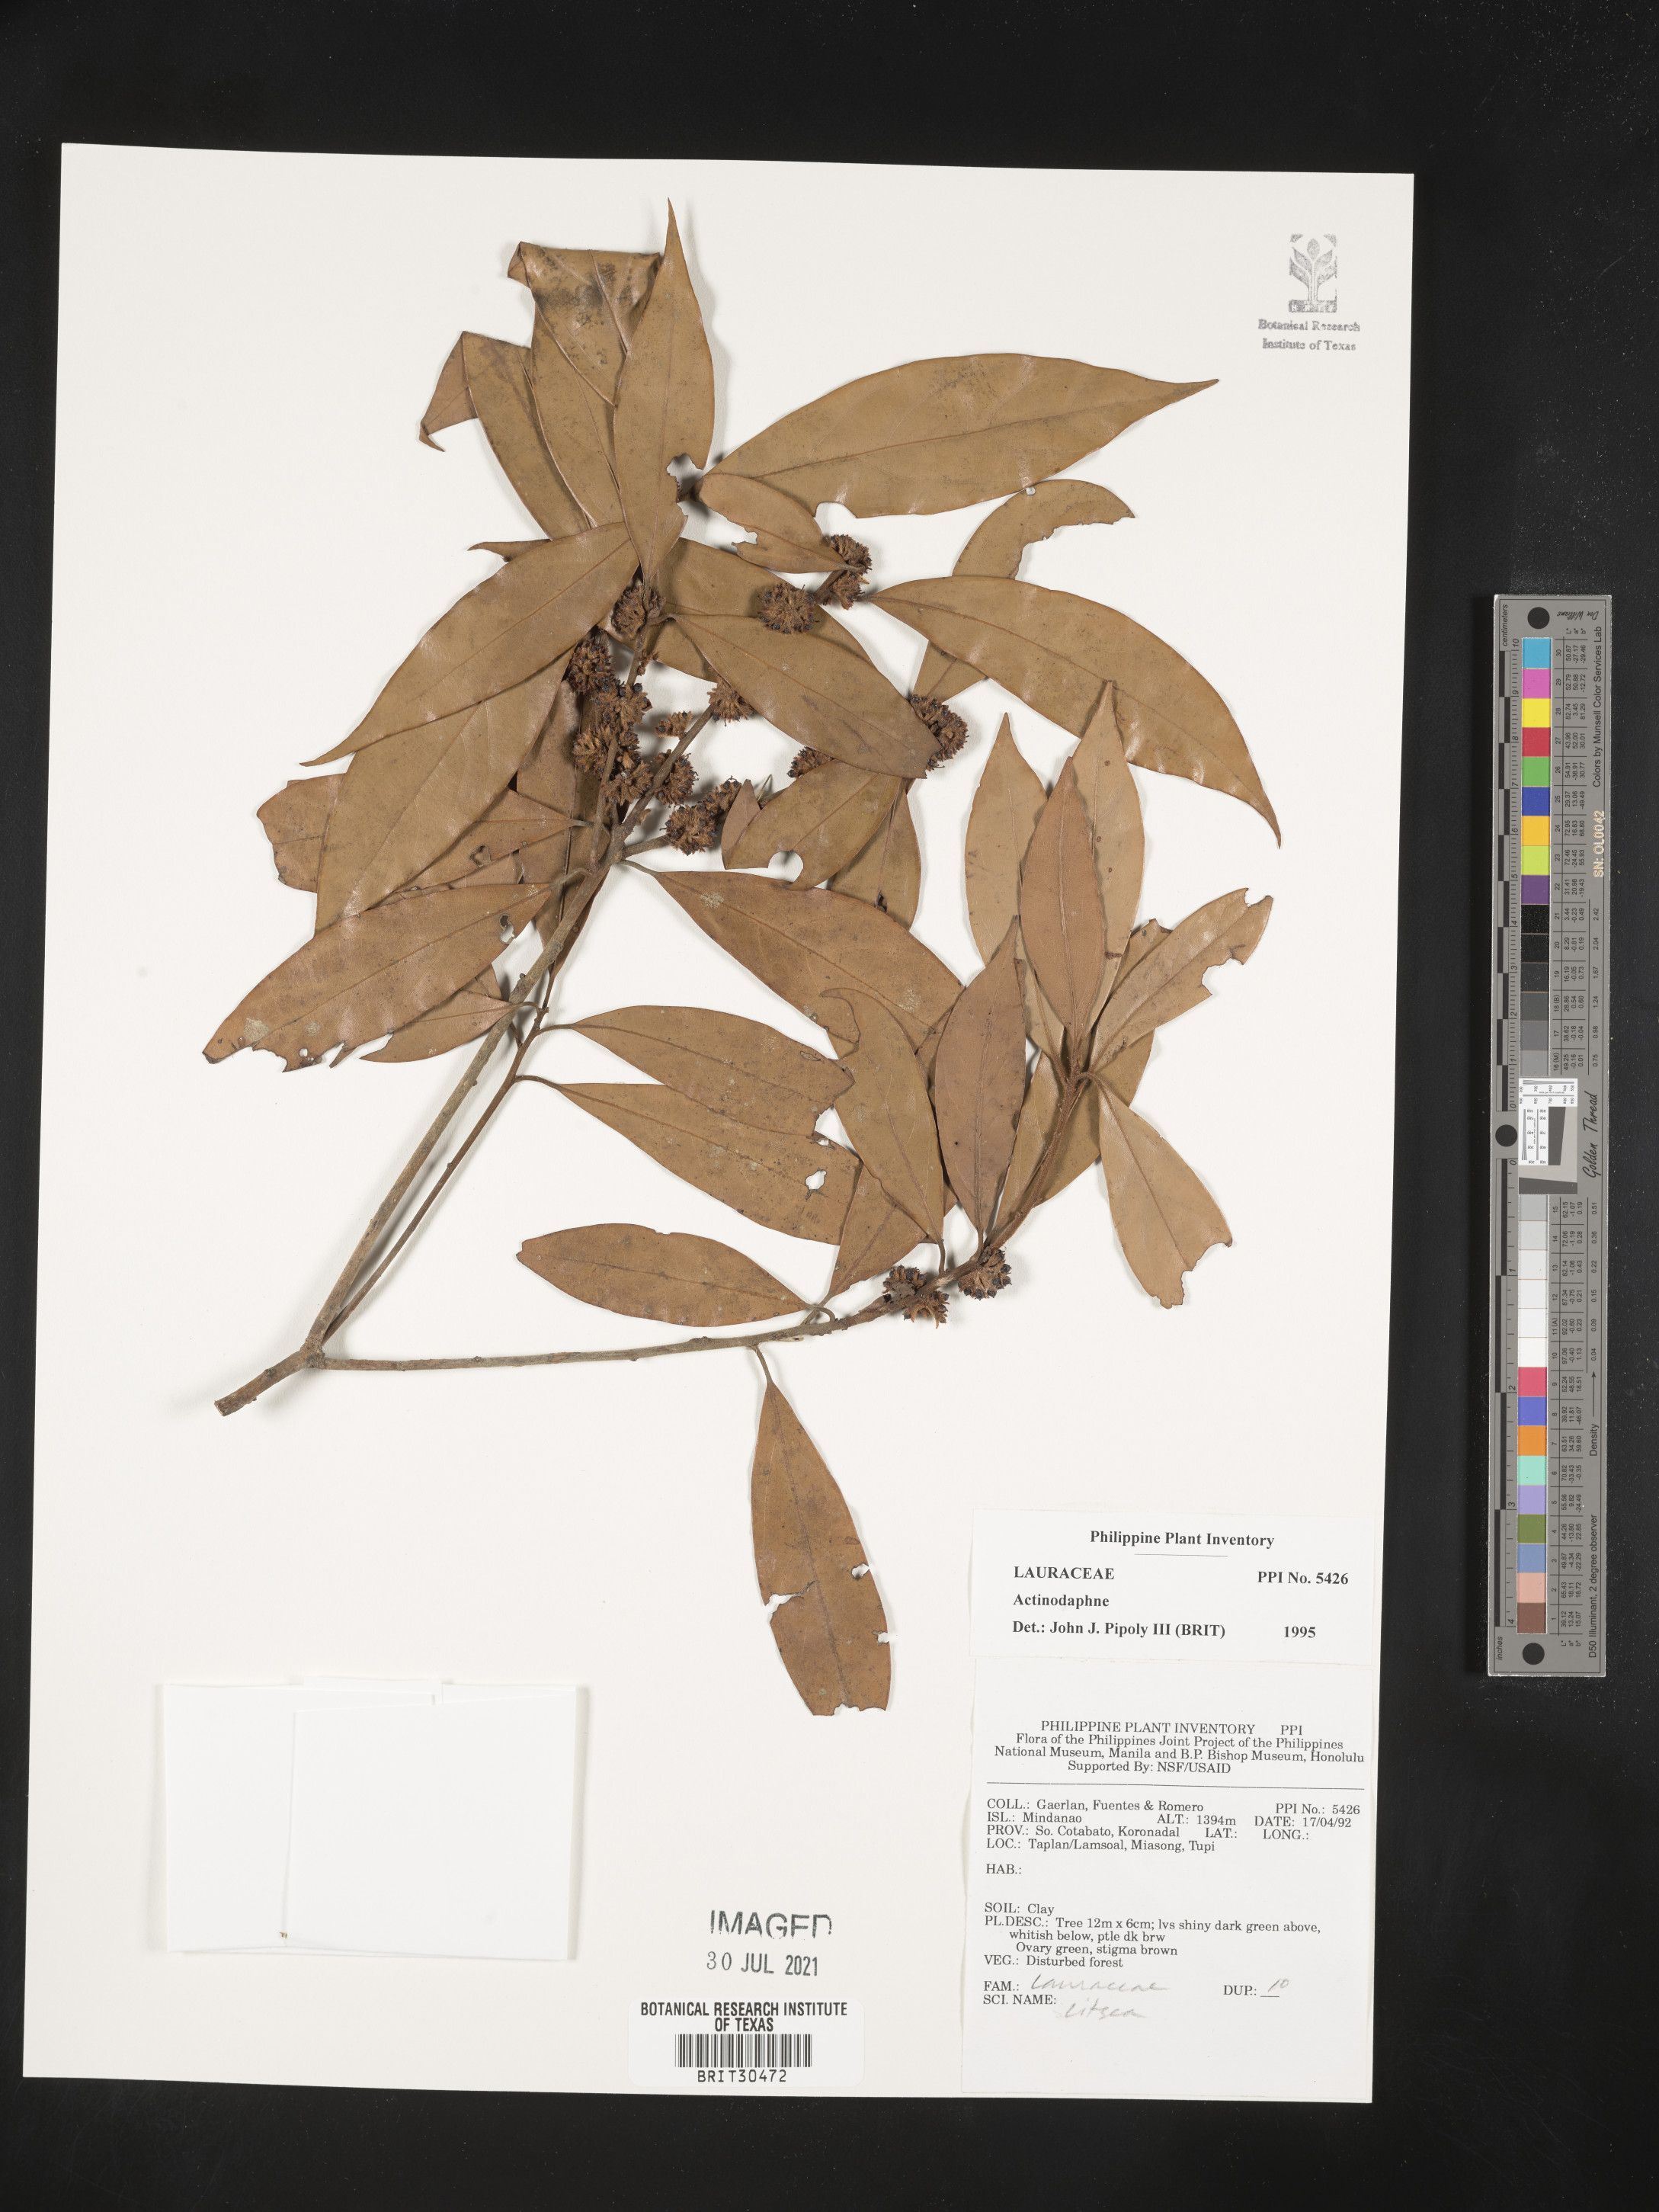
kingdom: Plantae
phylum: Tracheophyta
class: Magnoliopsida
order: Laurales
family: Lauraceae
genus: Actinodaphne
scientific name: Actinodaphne
